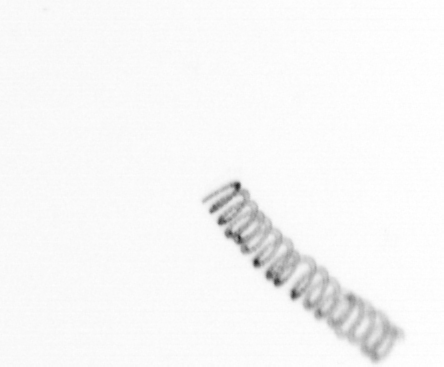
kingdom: Chromista
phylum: Ochrophyta
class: Bacillariophyceae
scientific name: Bacillariophyceae
